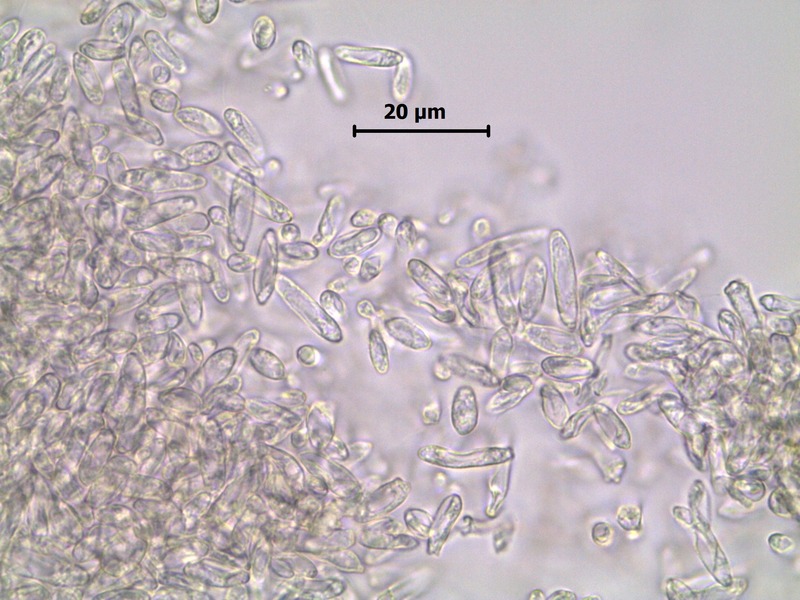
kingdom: Chromista
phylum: Oomycota
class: Peronosporea
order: Peronosporales
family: Peronosporaceae
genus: Bremia
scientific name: Bremia lactucae
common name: Lettuce downy mildew
